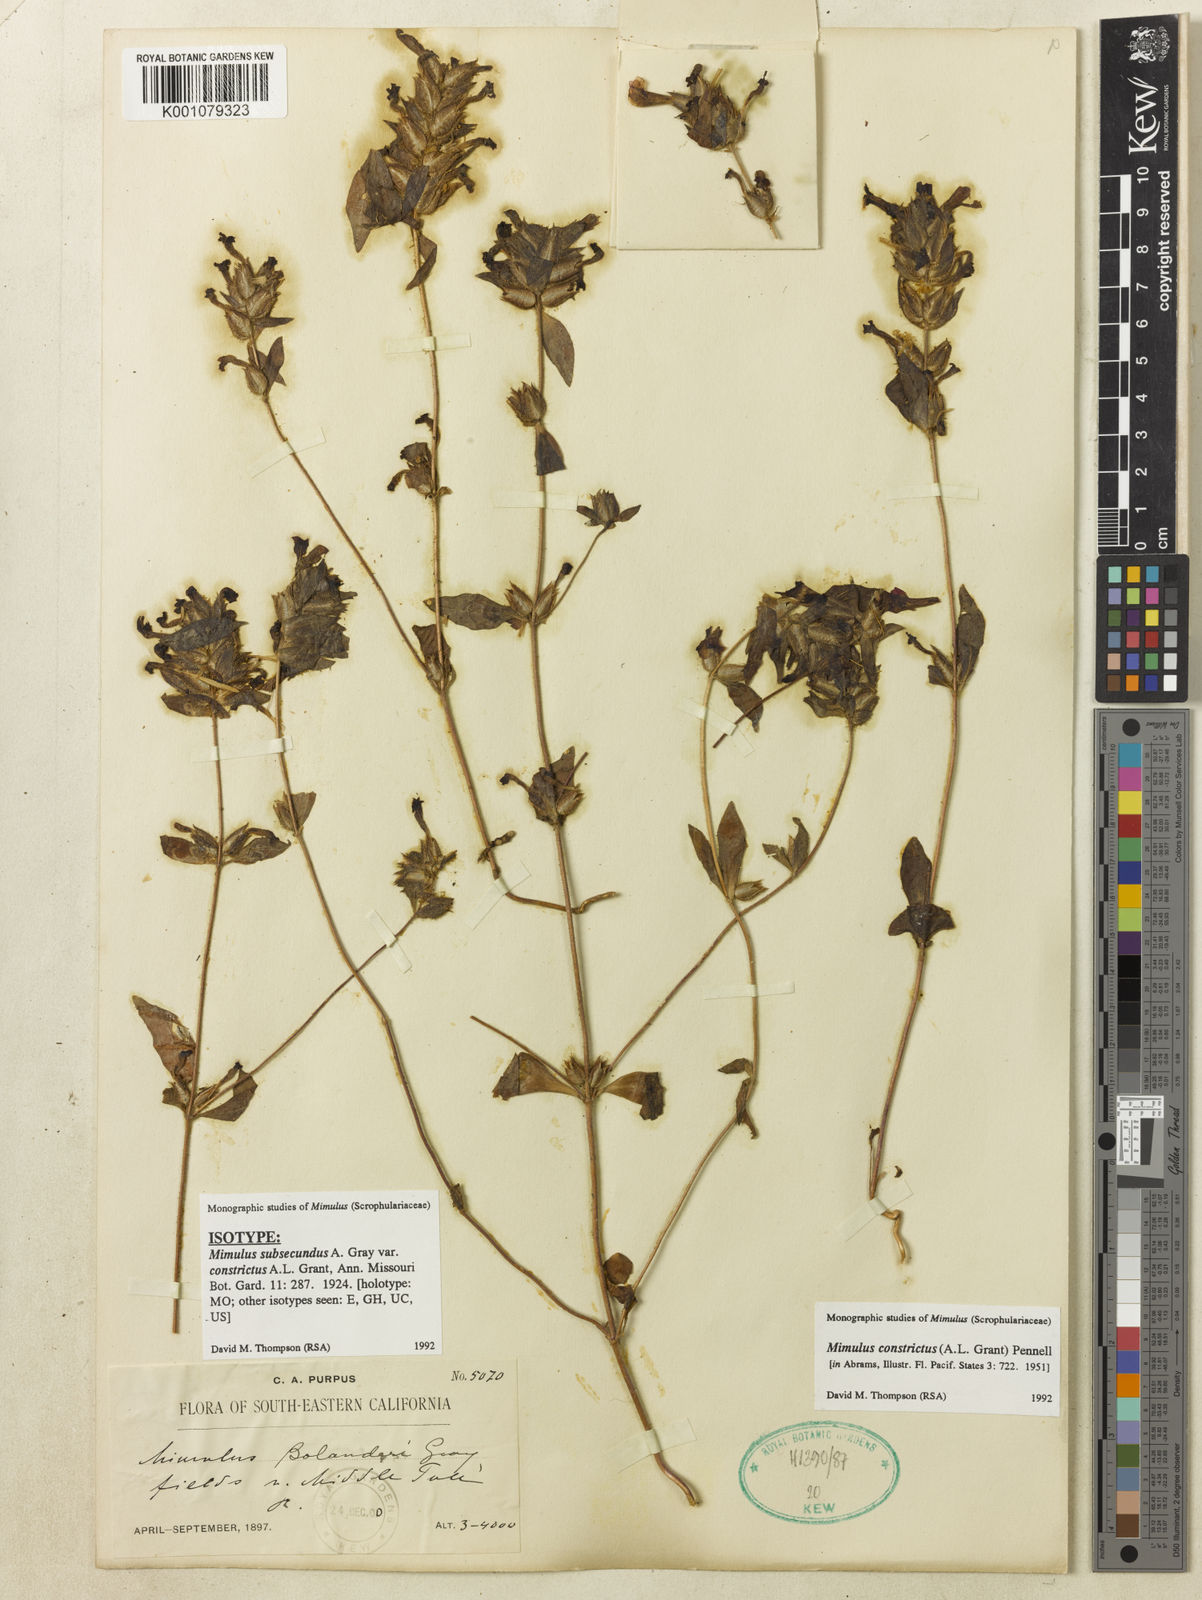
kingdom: Plantae
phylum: Tracheophyta
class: Magnoliopsida
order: Lamiales
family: Phrymaceae
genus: Diplacus
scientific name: Diplacus constrictus
